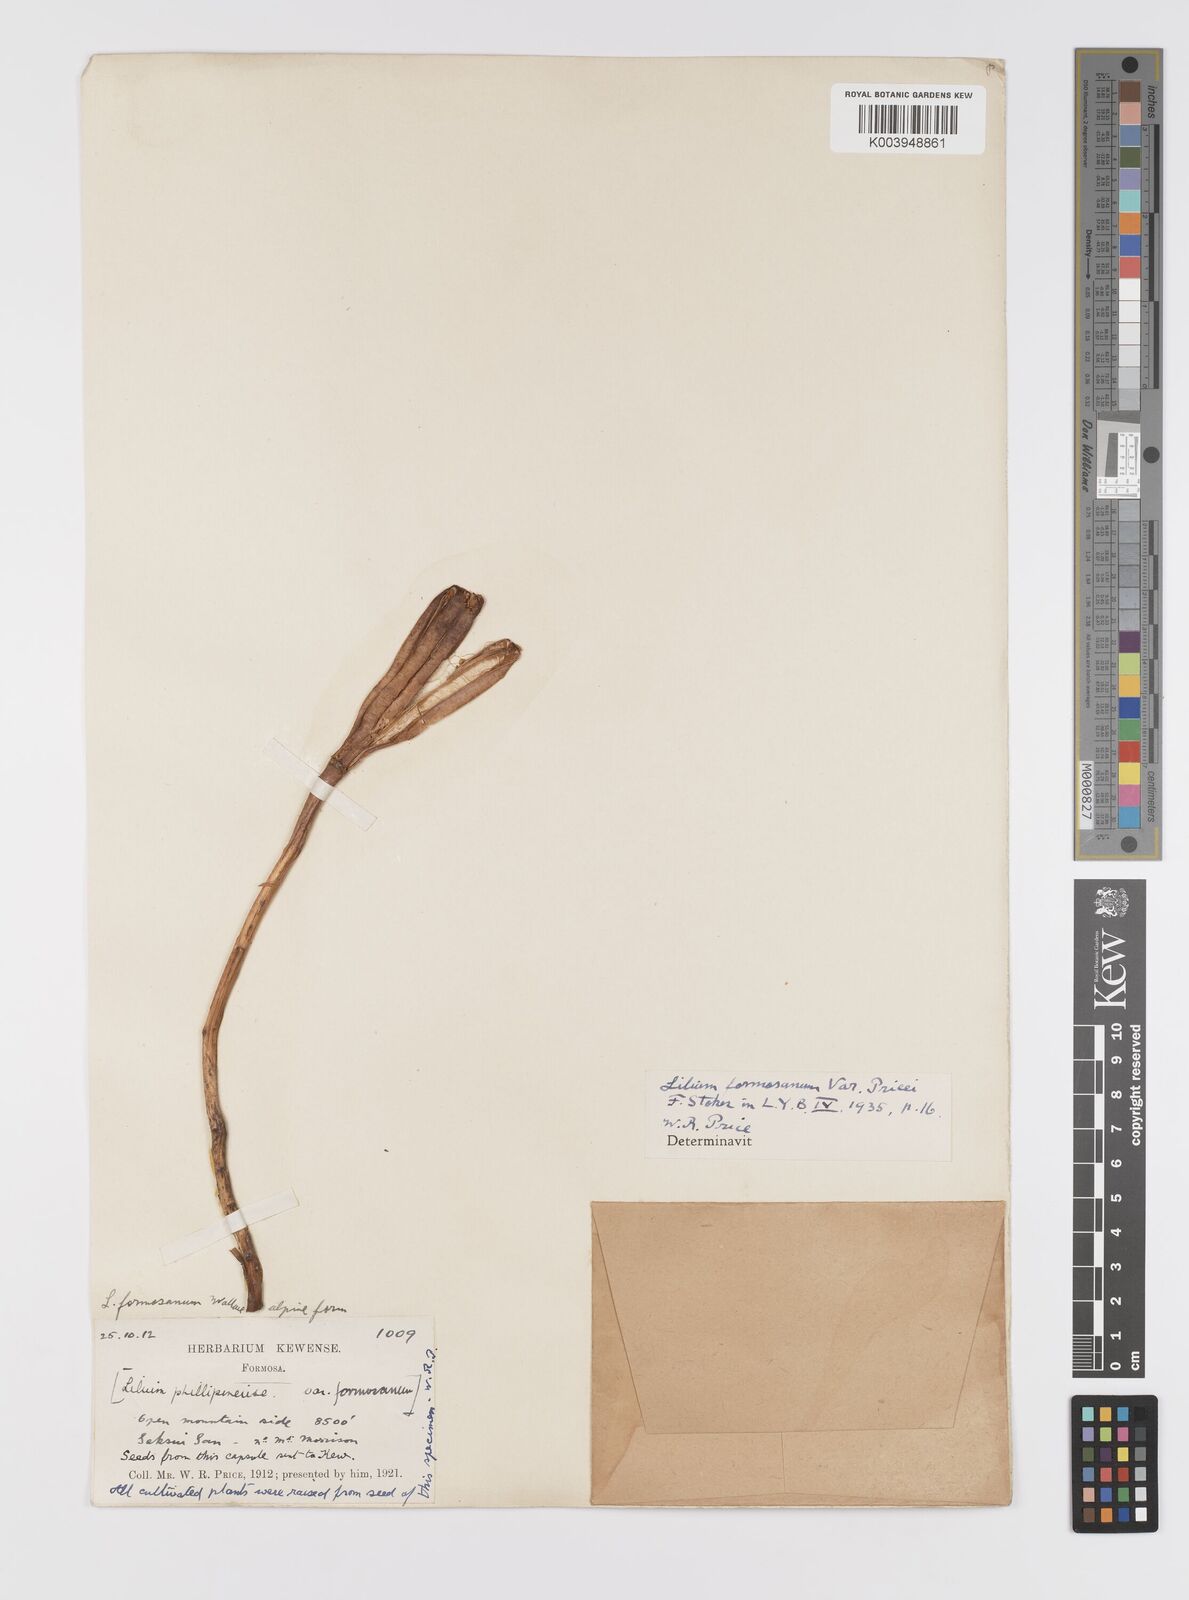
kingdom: Plantae
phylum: Tracheophyta
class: Liliopsida
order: Liliales
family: Liliaceae
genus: Lilium
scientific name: Lilium formosanum
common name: Formosa lily
